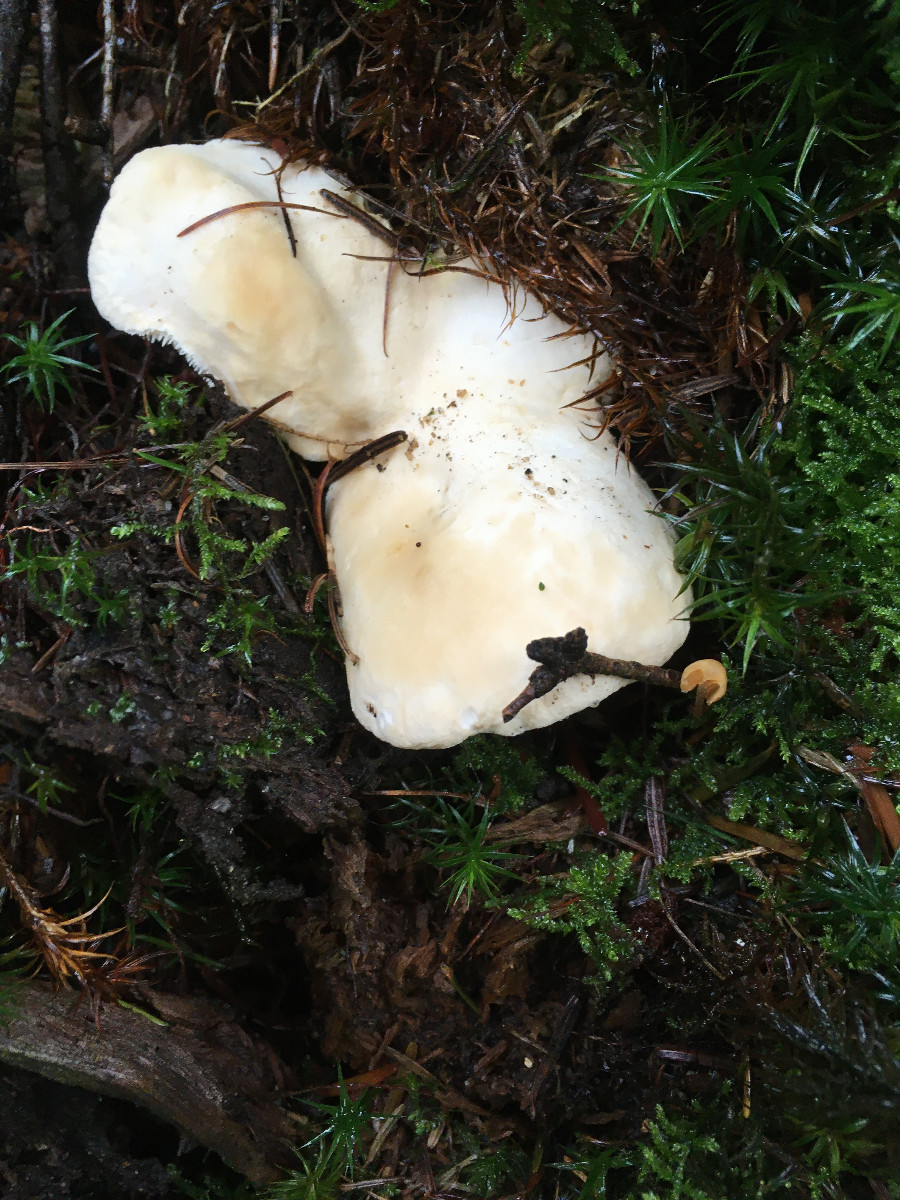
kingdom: Fungi
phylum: Basidiomycota
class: Agaricomycetes
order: Cantharellales
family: Hydnaceae
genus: Hydnum
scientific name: Hydnum repandum
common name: almindelig pigsvamp
